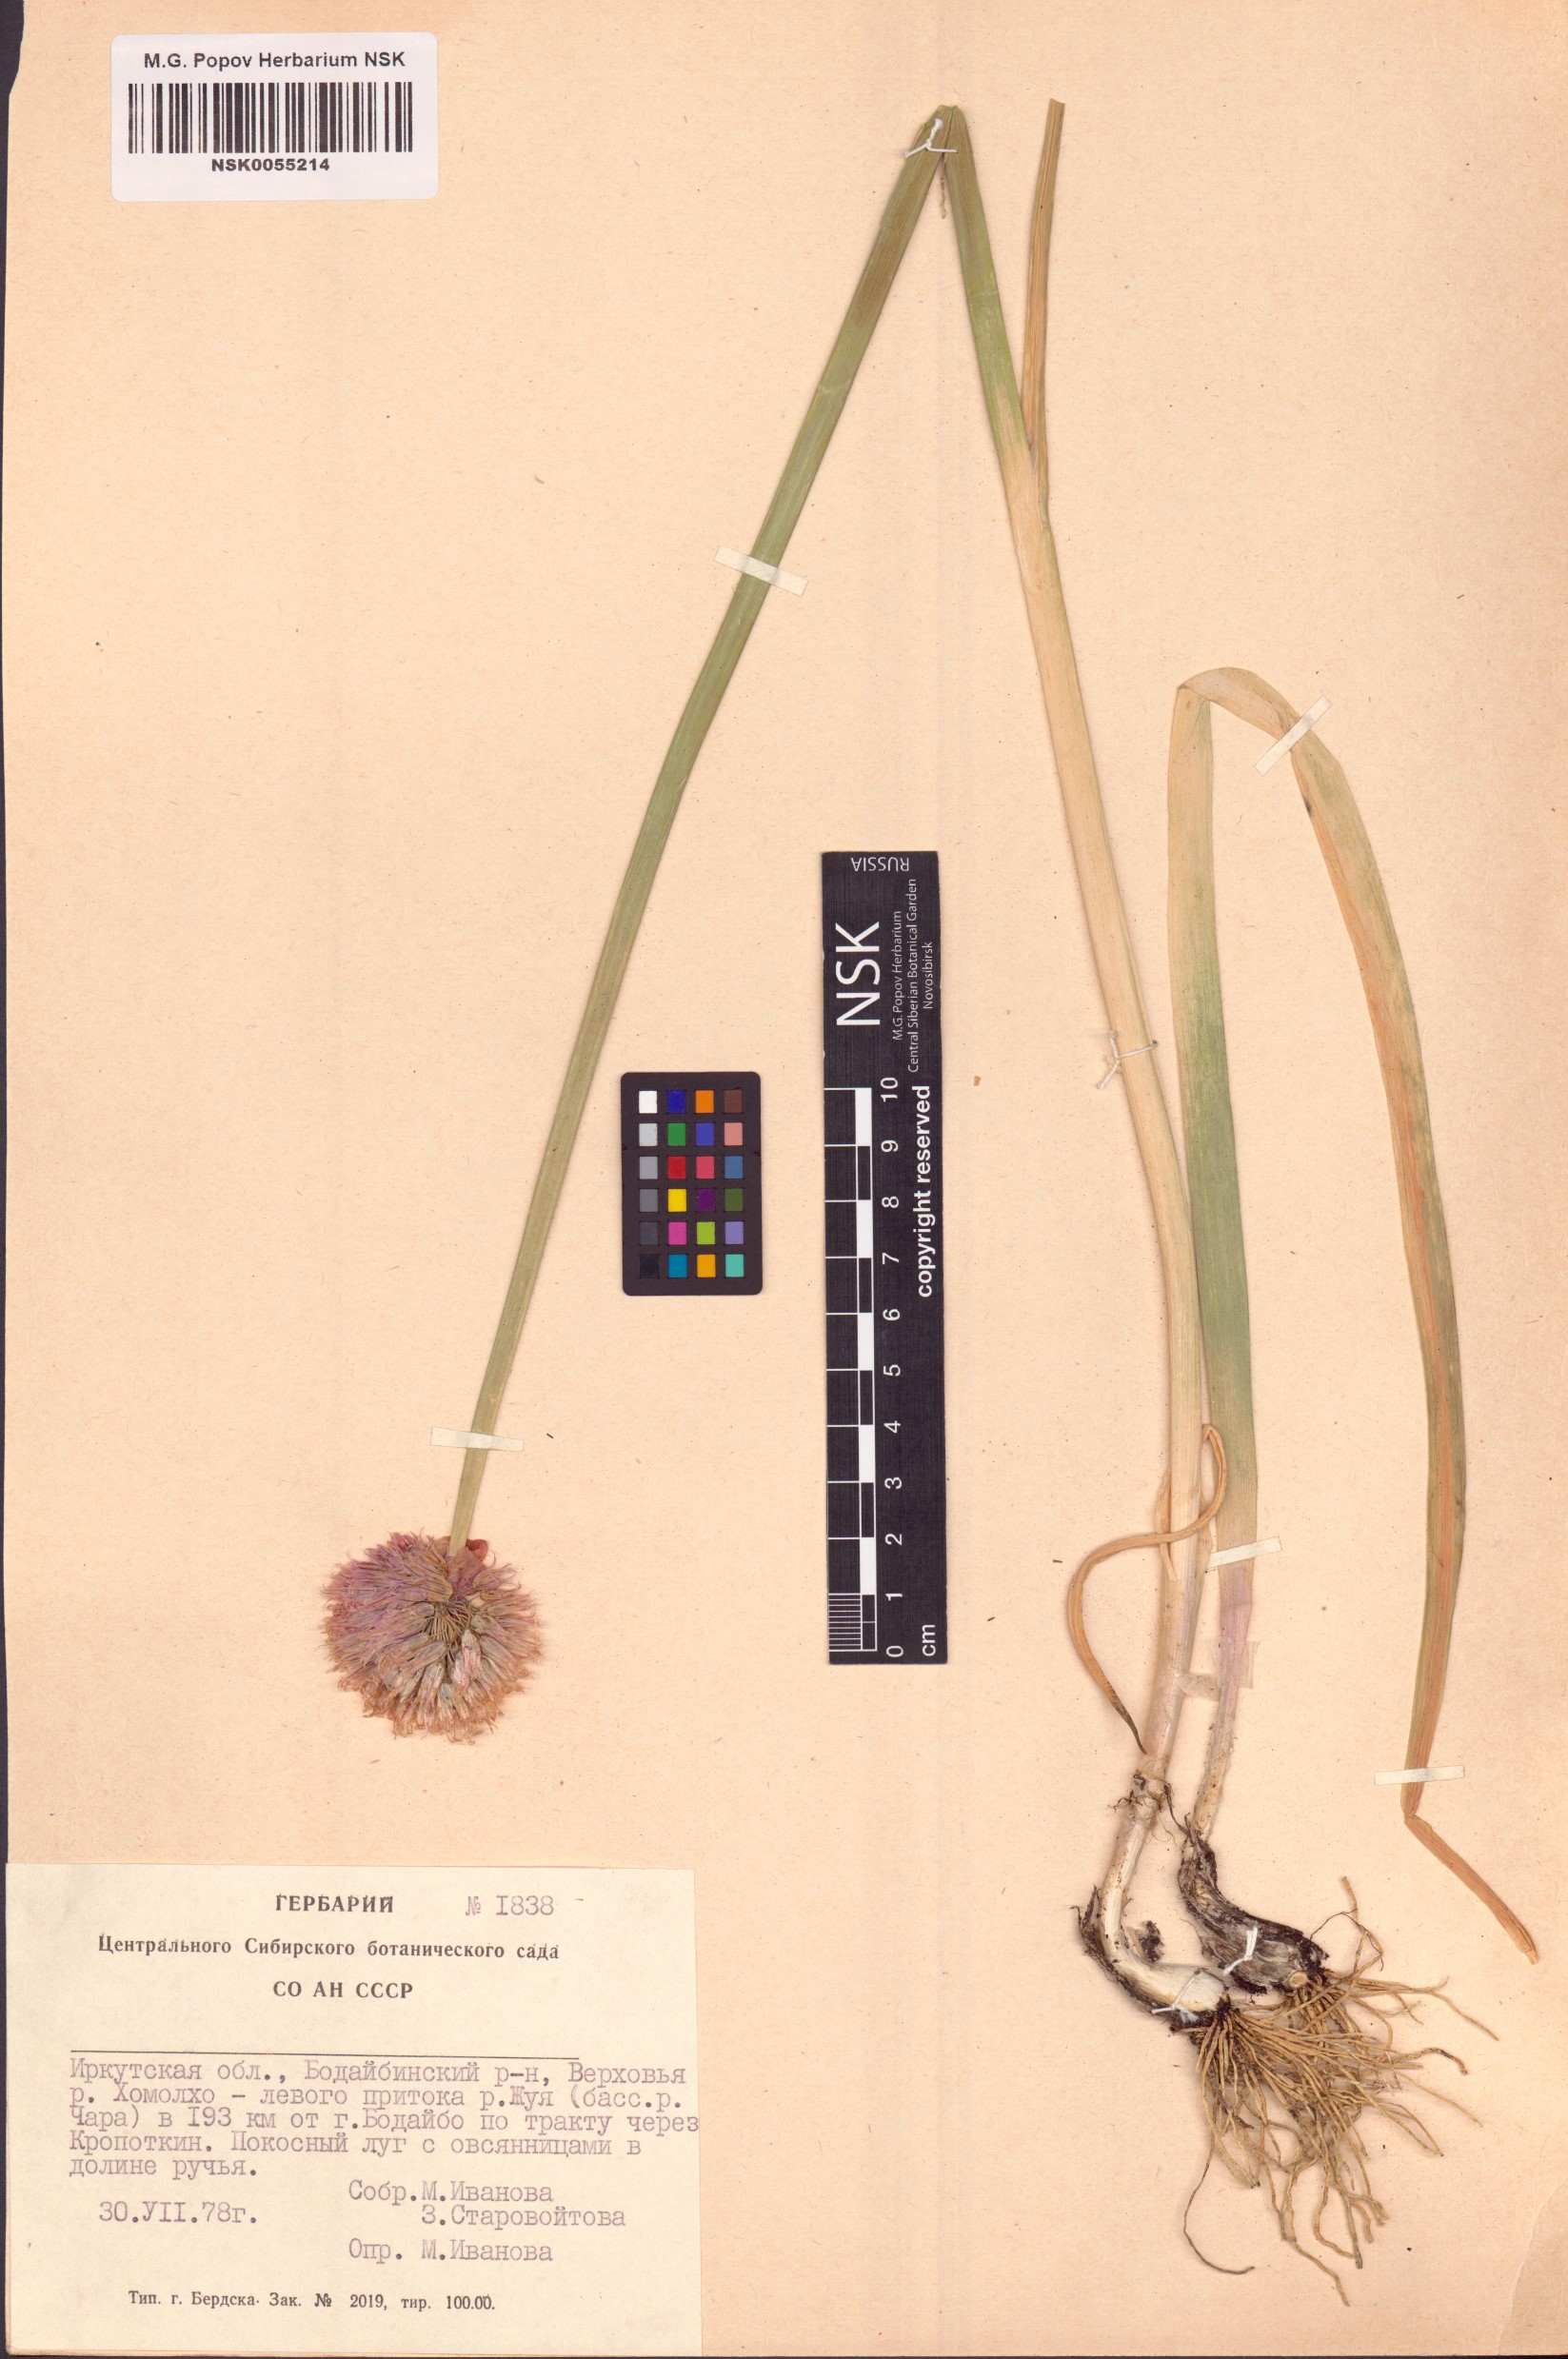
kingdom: Plantae
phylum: Tracheophyta
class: Liliopsida
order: Asparagales
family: Amaryllidaceae
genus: Allium
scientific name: Allium schoenoprasum
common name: Chives
